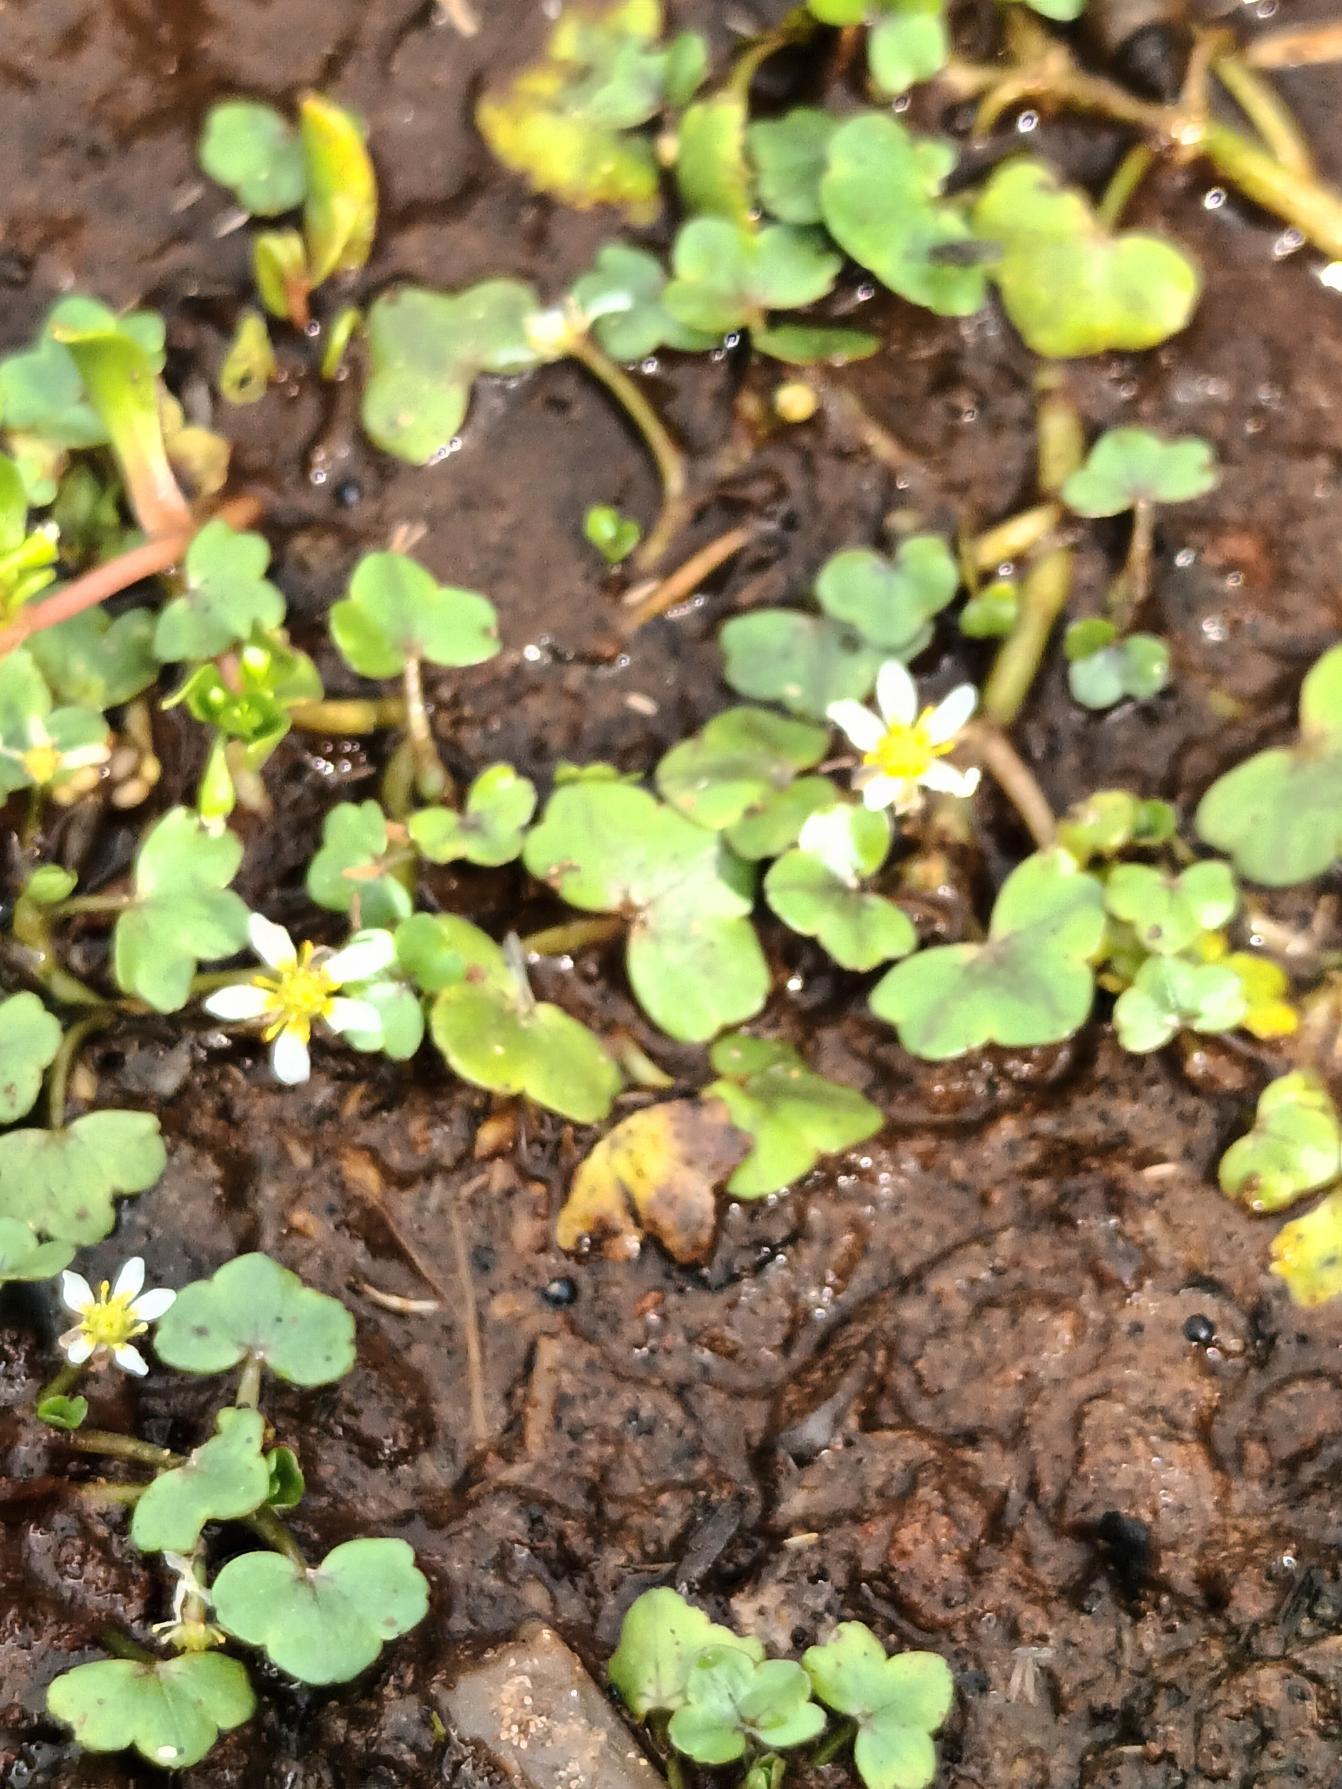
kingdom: Plantae
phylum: Tracheophyta
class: Magnoliopsida
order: Ranunculales
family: Ranunculaceae
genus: Ranunculus
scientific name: Ranunculus hederaceus
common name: Vedbend-vandranunkel
